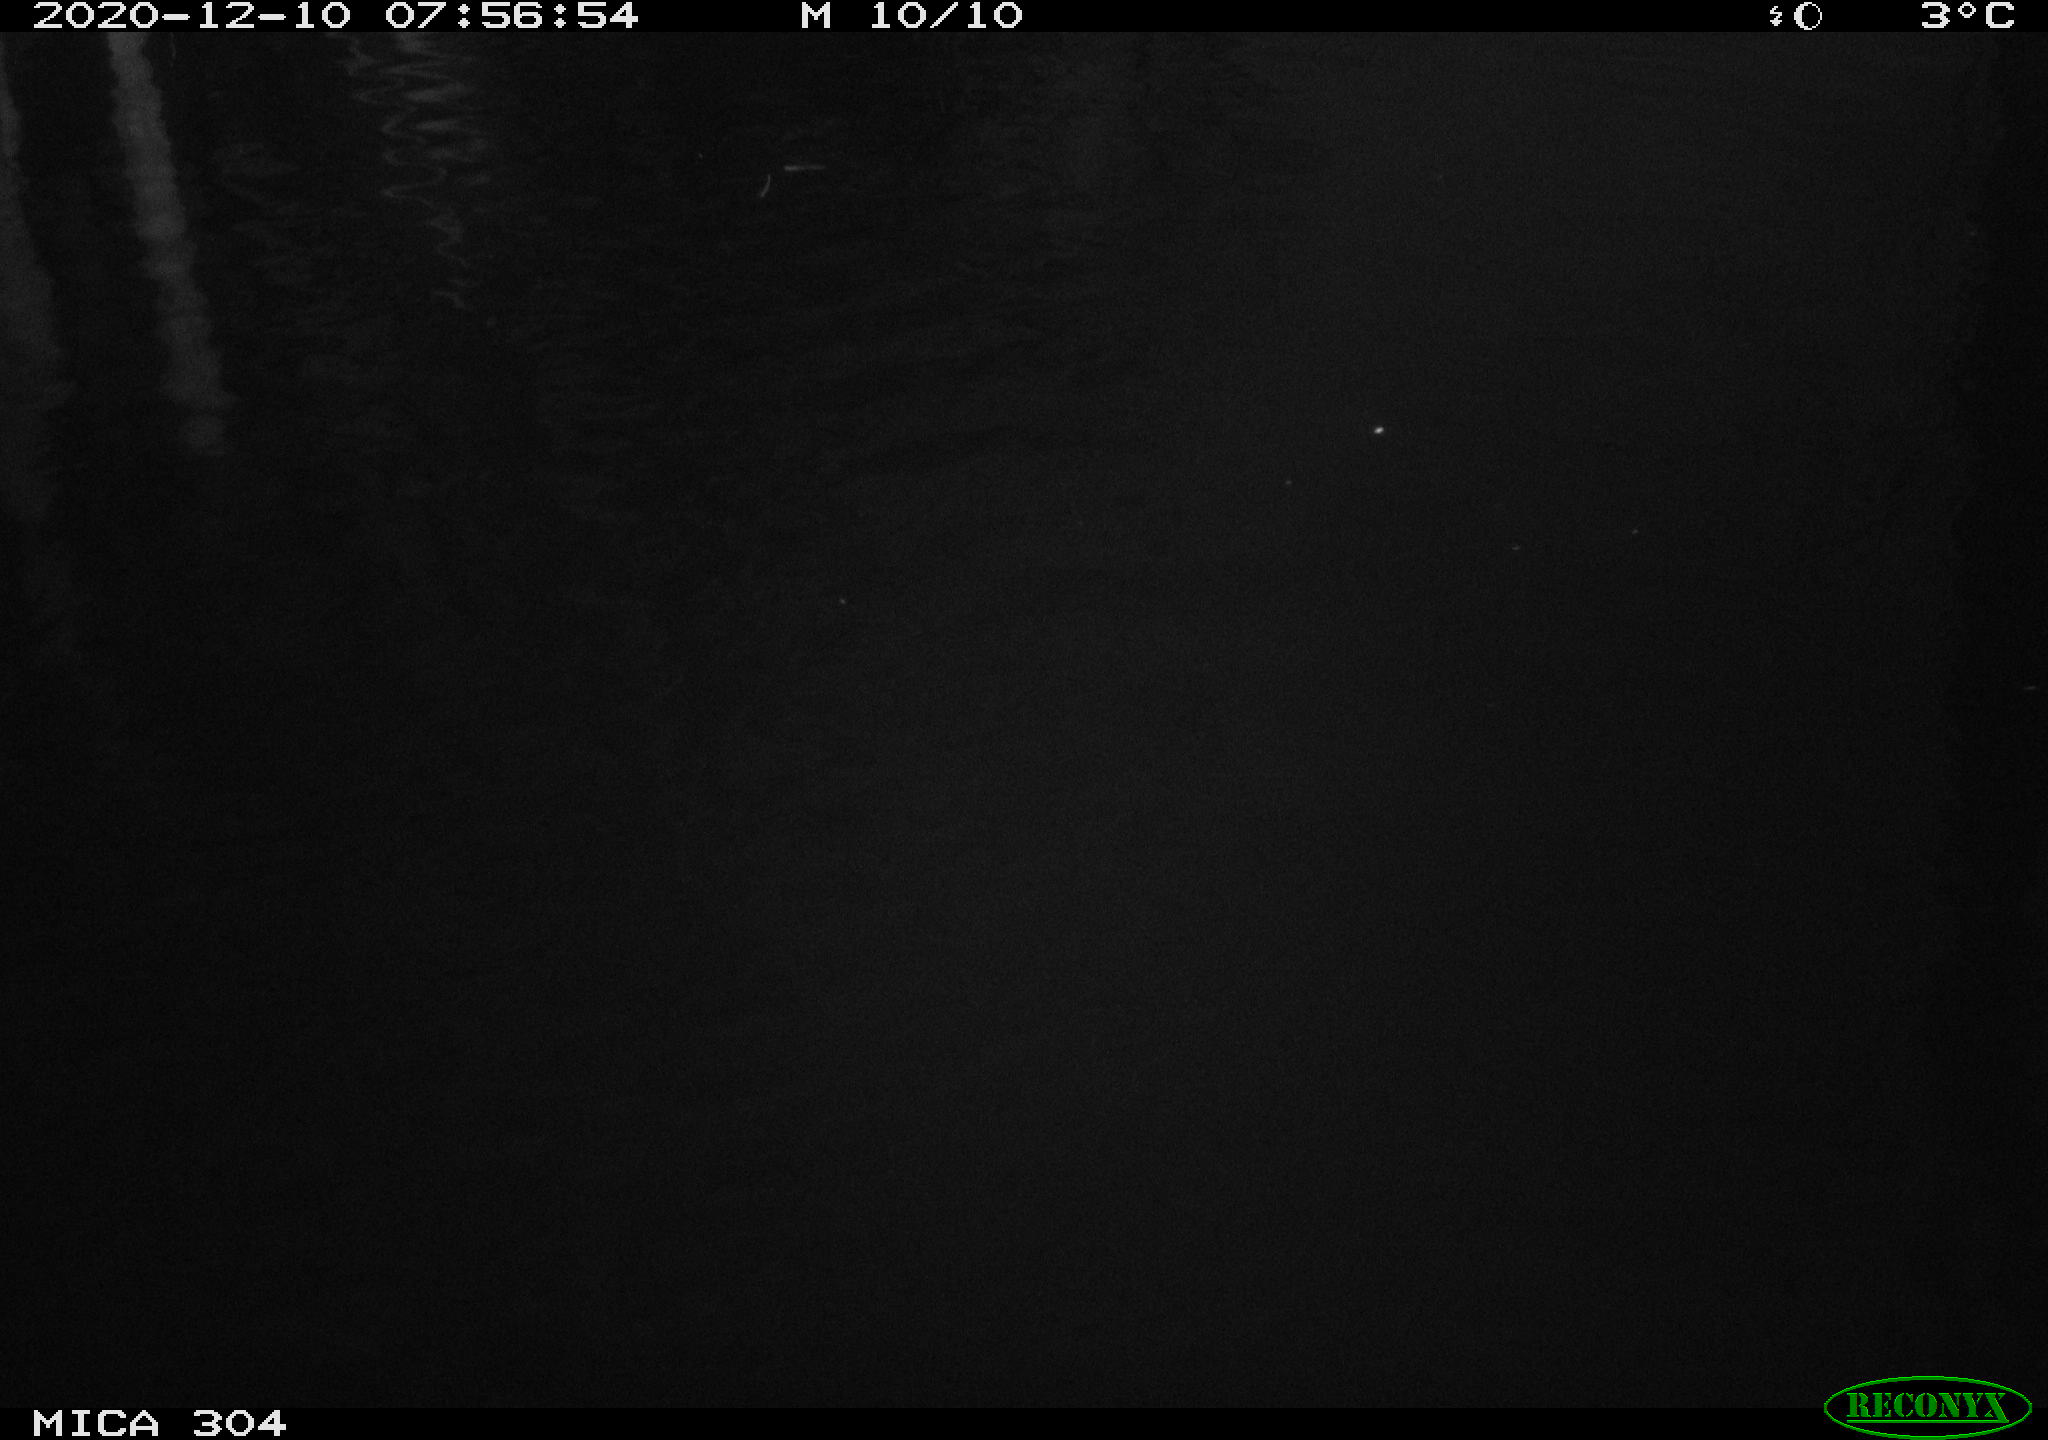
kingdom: Animalia
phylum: Chordata
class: Aves
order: Gruiformes
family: Rallidae
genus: Fulica
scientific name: Fulica atra
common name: Eurasian coot
